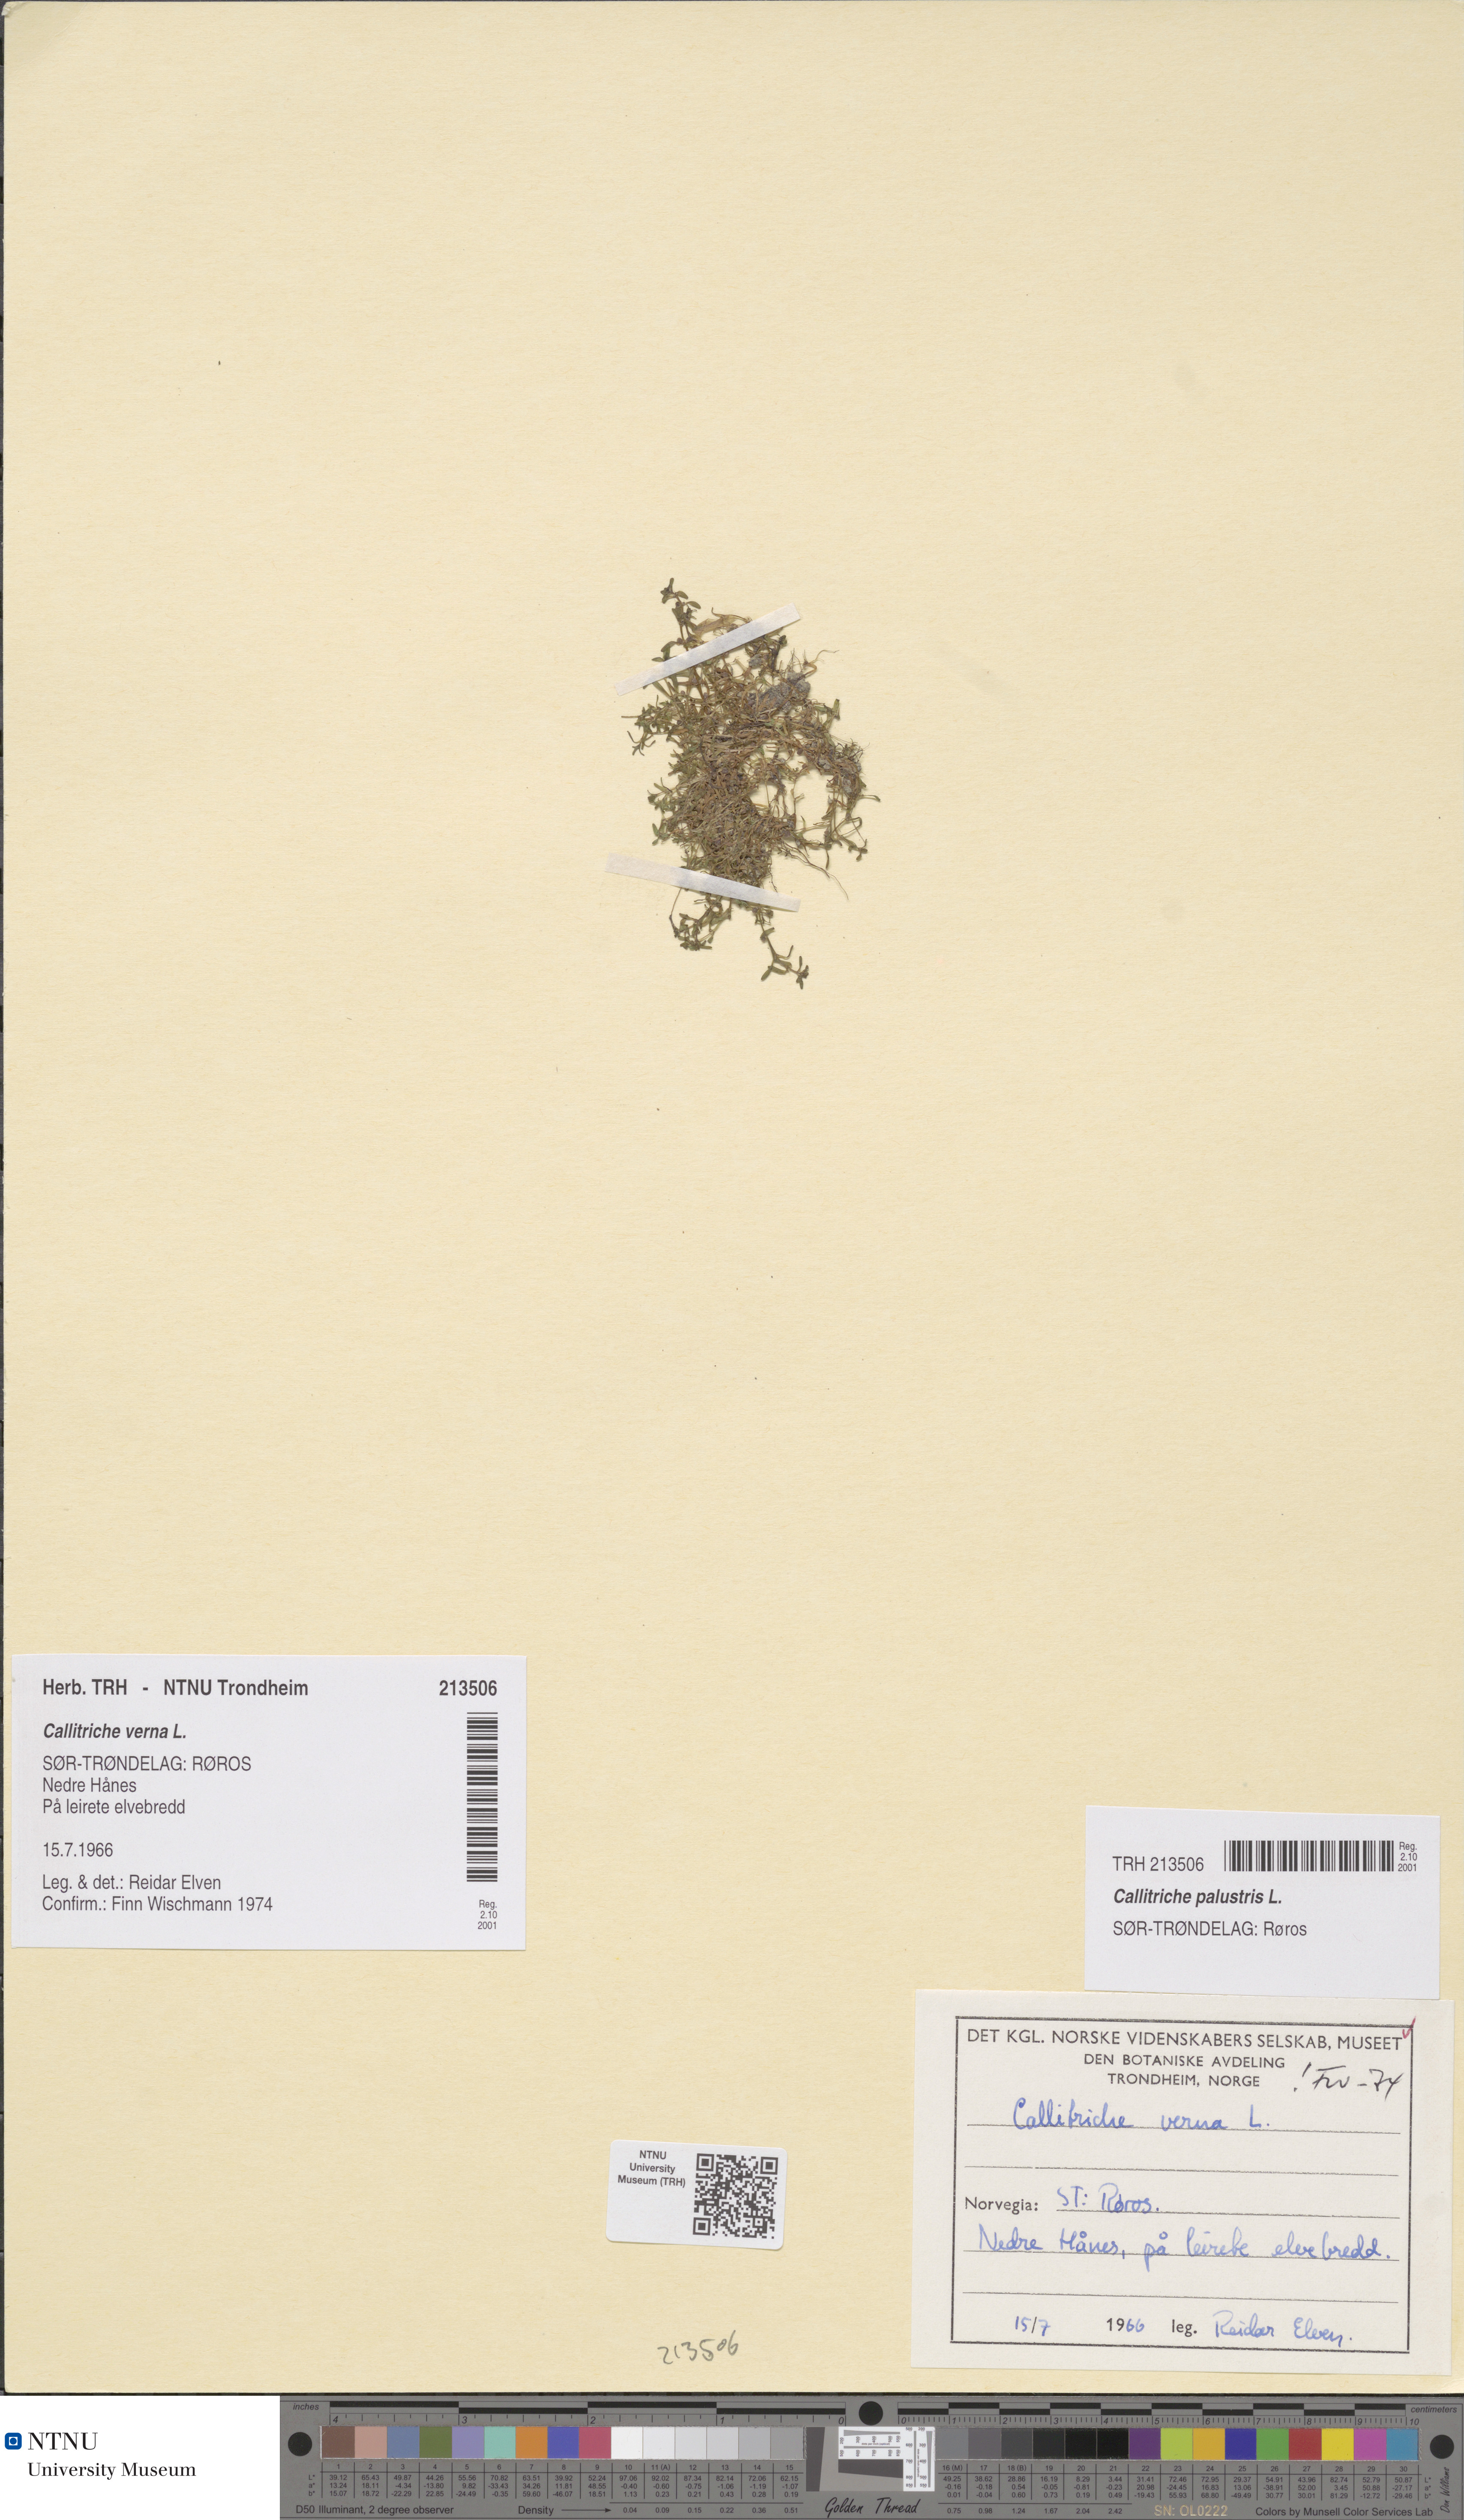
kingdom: Plantae
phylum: Tracheophyta
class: Magnoliopsida
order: Lamiales
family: Plantaginaceae
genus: Callitriche
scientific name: Callitriche palustris
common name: Spring water-starwort
